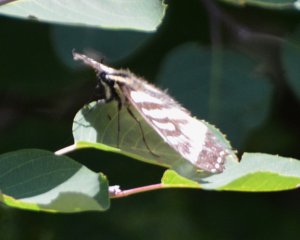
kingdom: Animalia
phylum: Arthropoda
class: Insecta
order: Lepidoptera
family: Papilionidae
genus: Pterourus
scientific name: Pterourus canadensis
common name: Canadian Tiger Swallowtail
